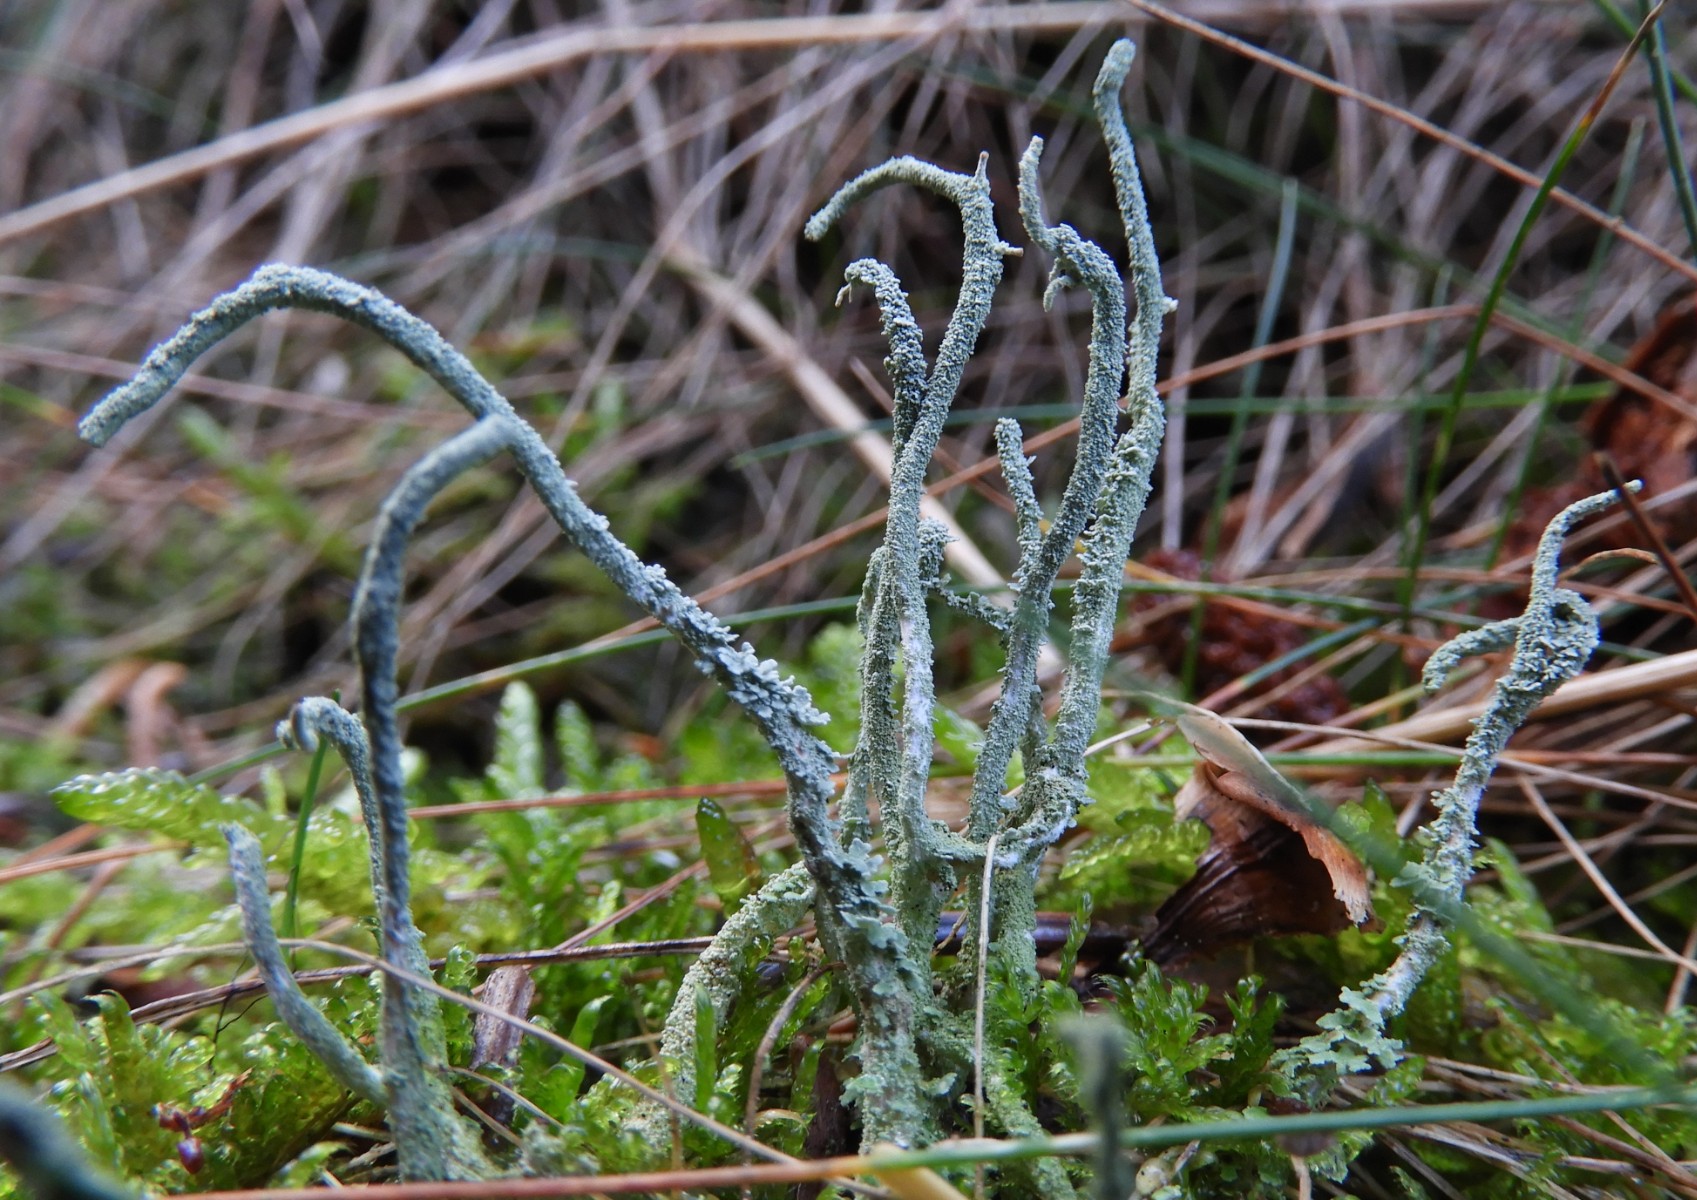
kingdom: Fungi
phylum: Ascomycota
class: Lecanoromycetes
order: Lecanorales
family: Cladoniaceae
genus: Cladonia
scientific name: Cladonia
